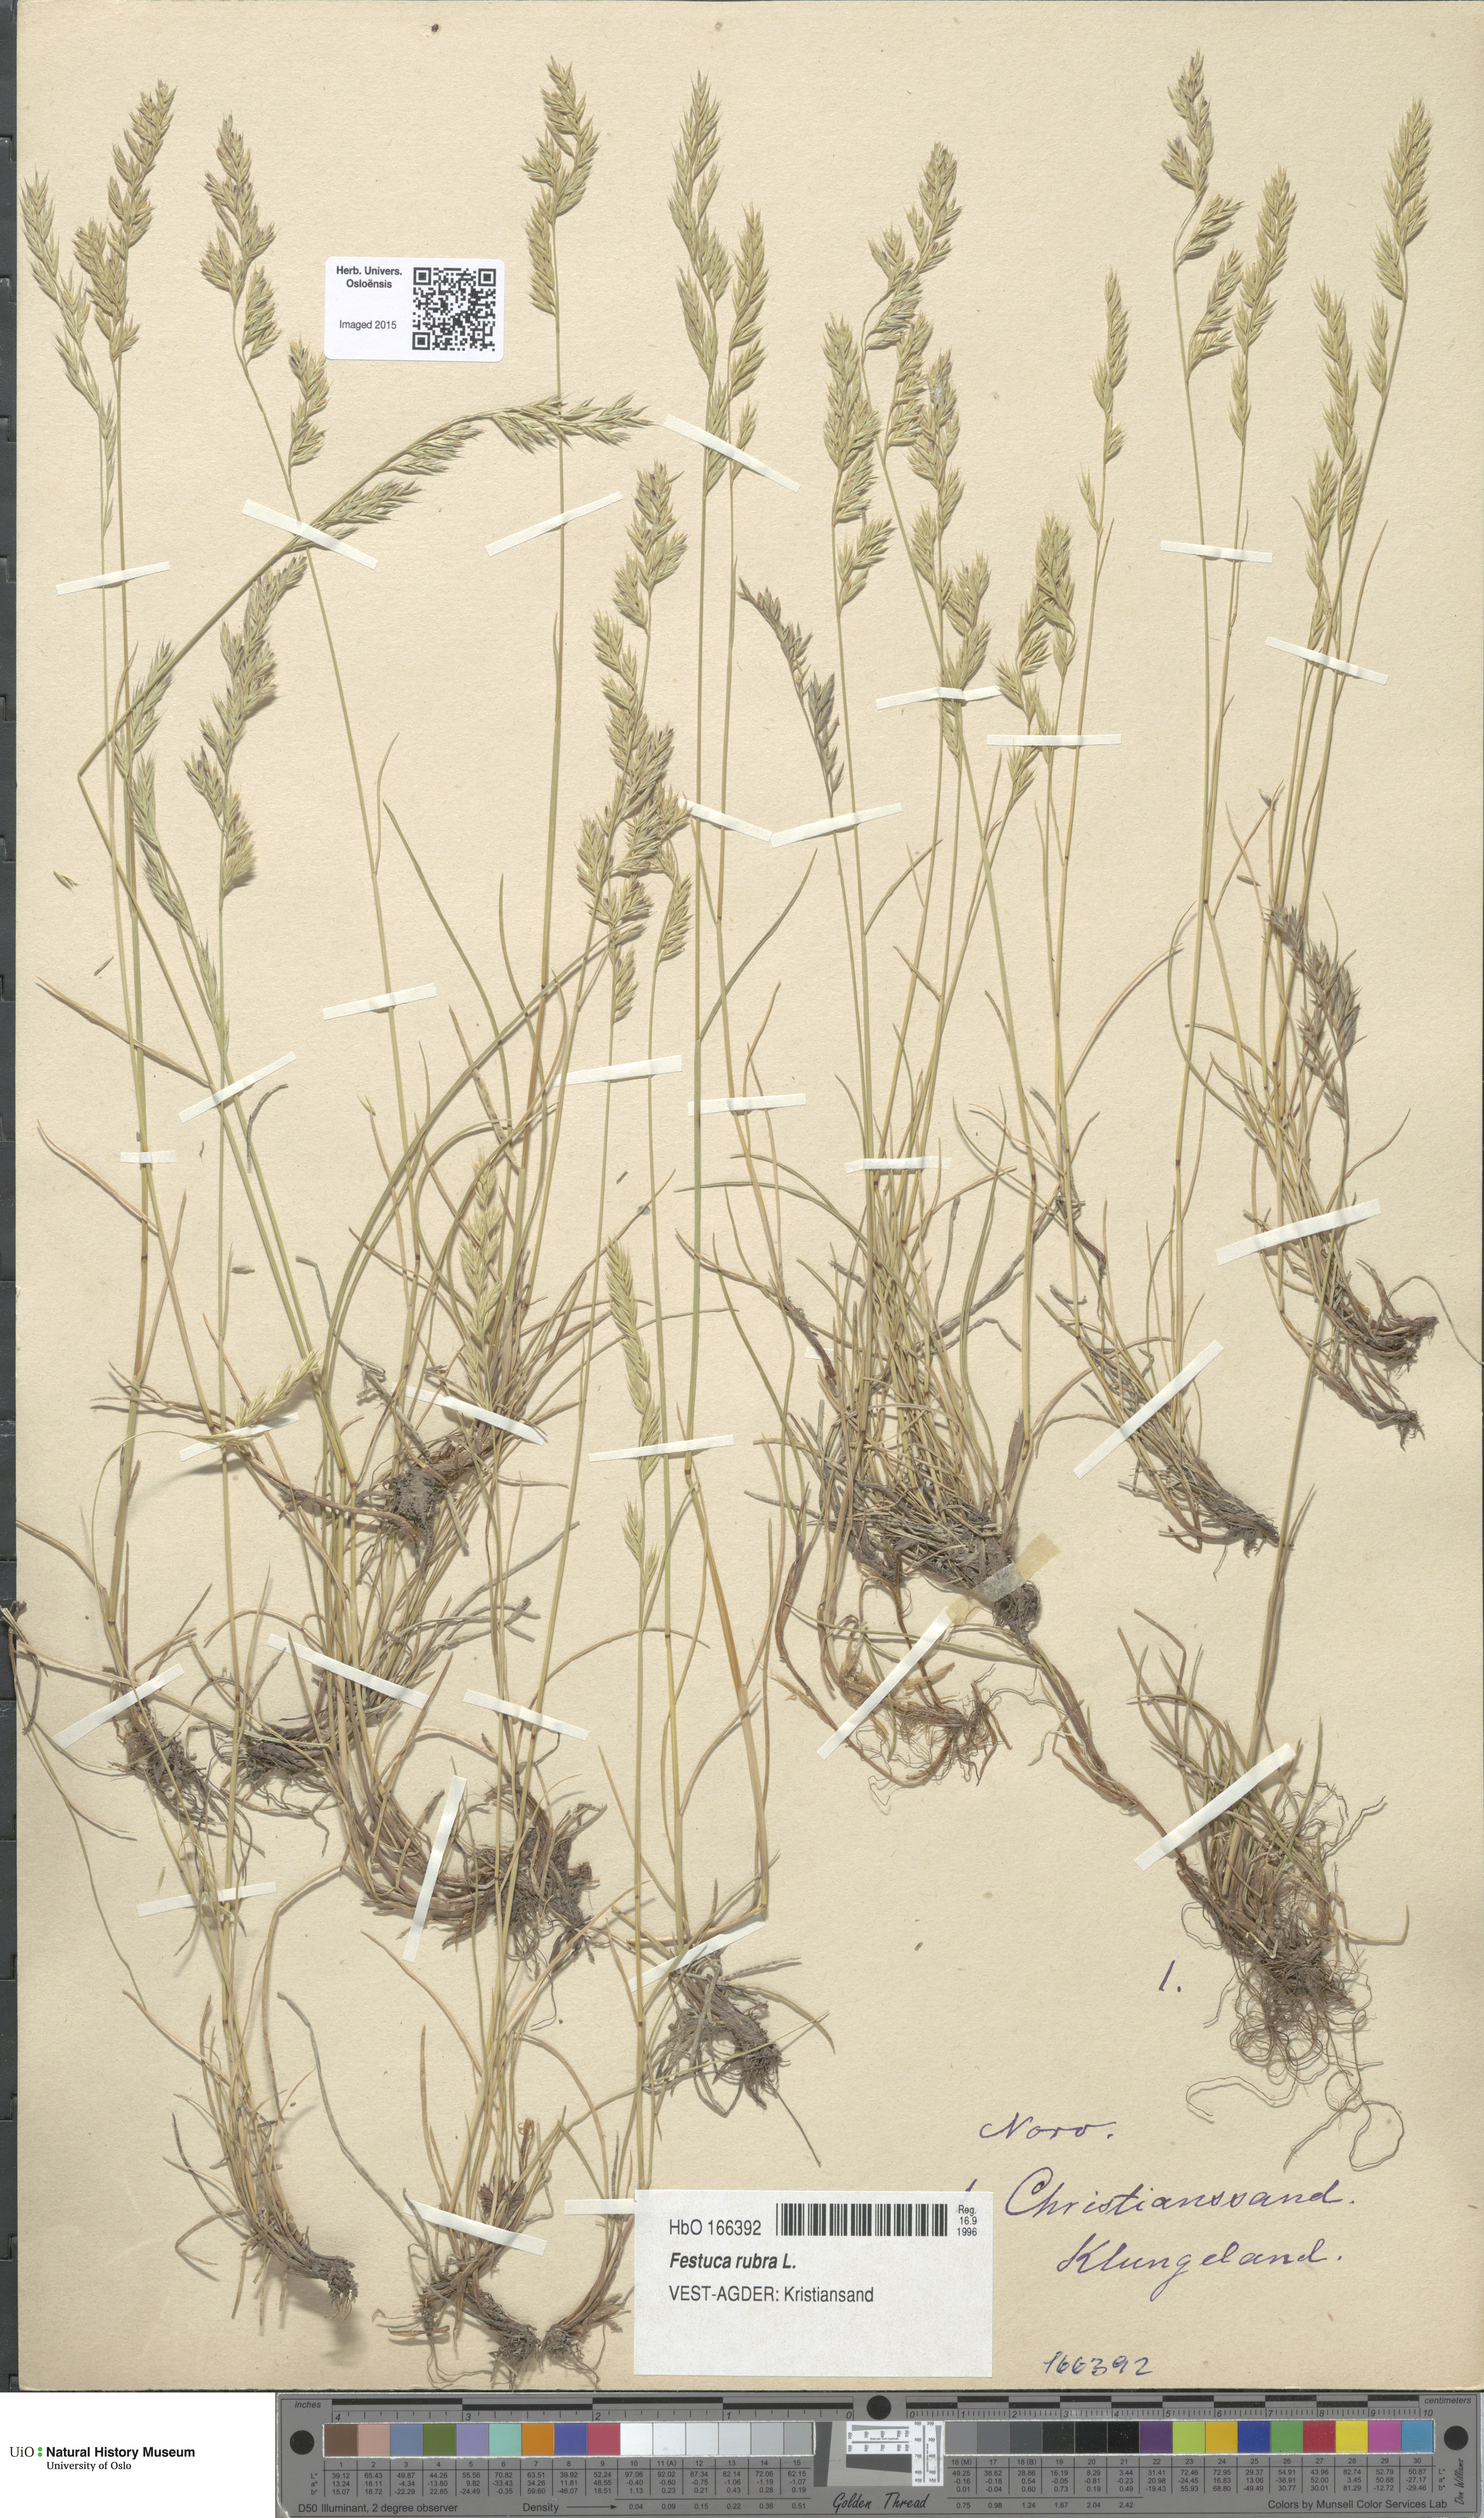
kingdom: Plantae
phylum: Tracheophyta
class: Liliopsida
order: Poales
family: Poaceae
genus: Festuca
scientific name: Festuca rubra
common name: Red fescue
